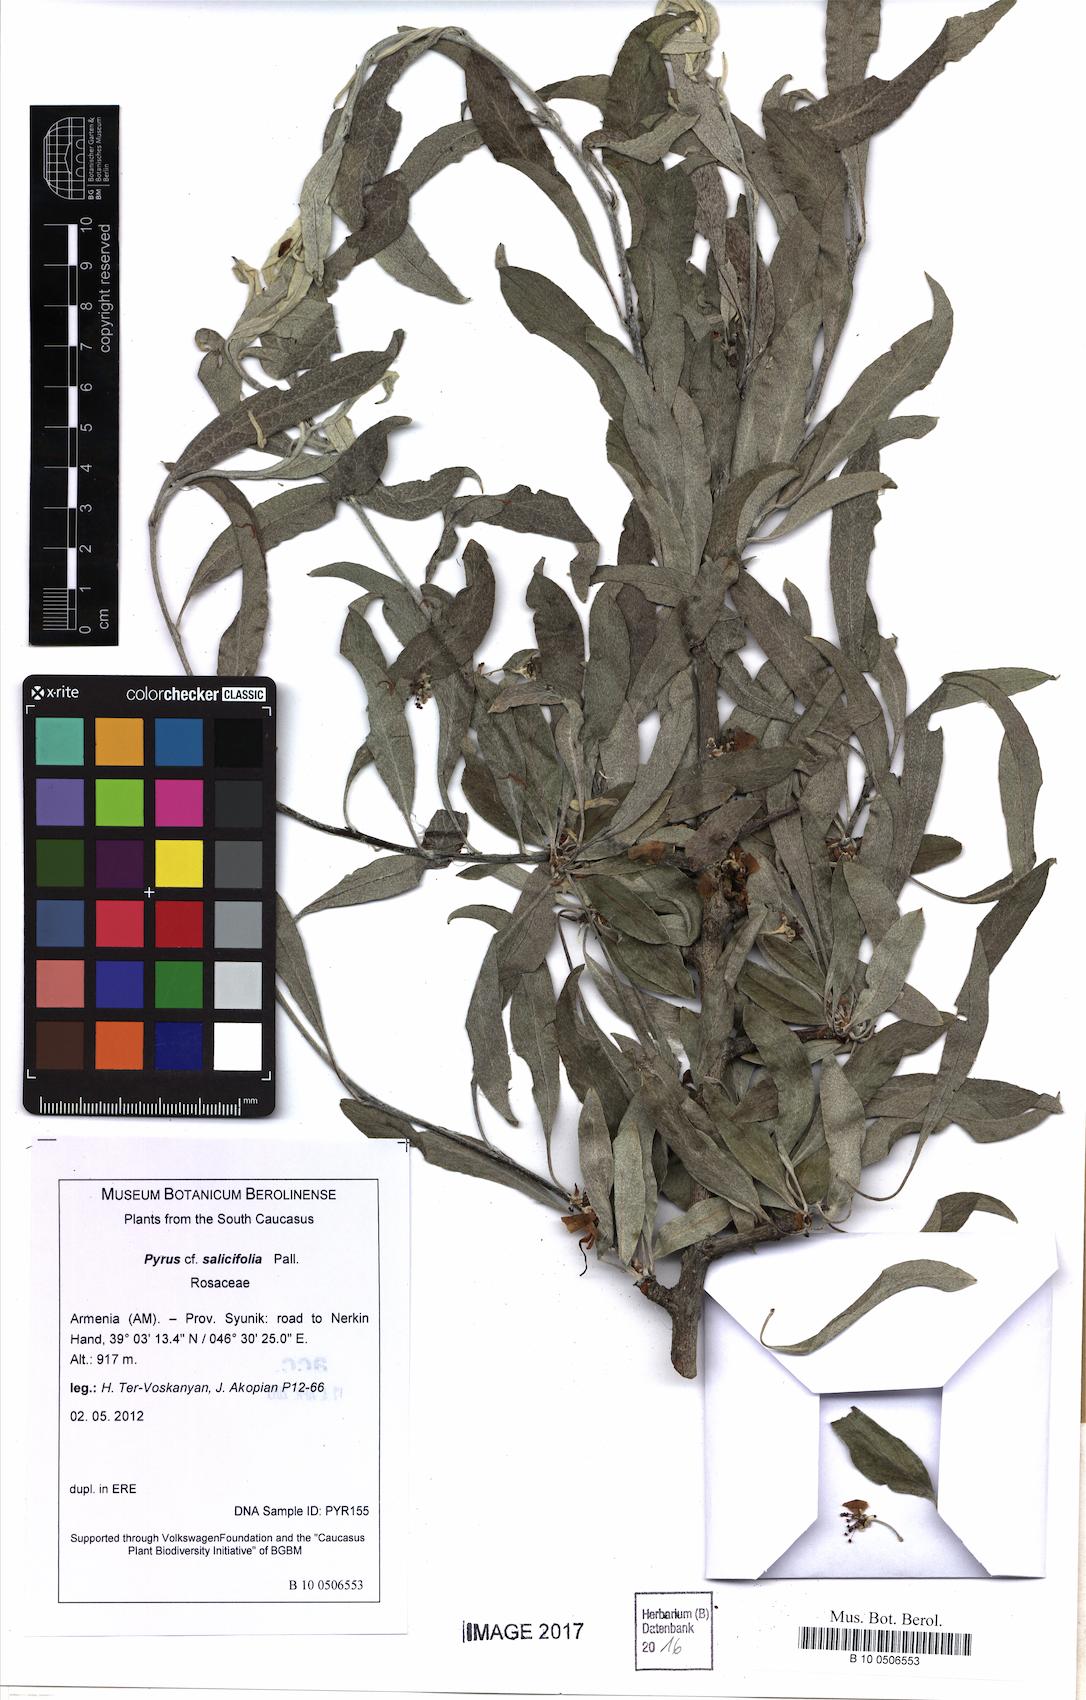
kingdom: Plantae
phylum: Tracheophyta
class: Magnoliopsida
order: Rosales
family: Rosaceae
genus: Pyrus
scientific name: Pyrus salicifolia
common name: Willow-leaved pear
